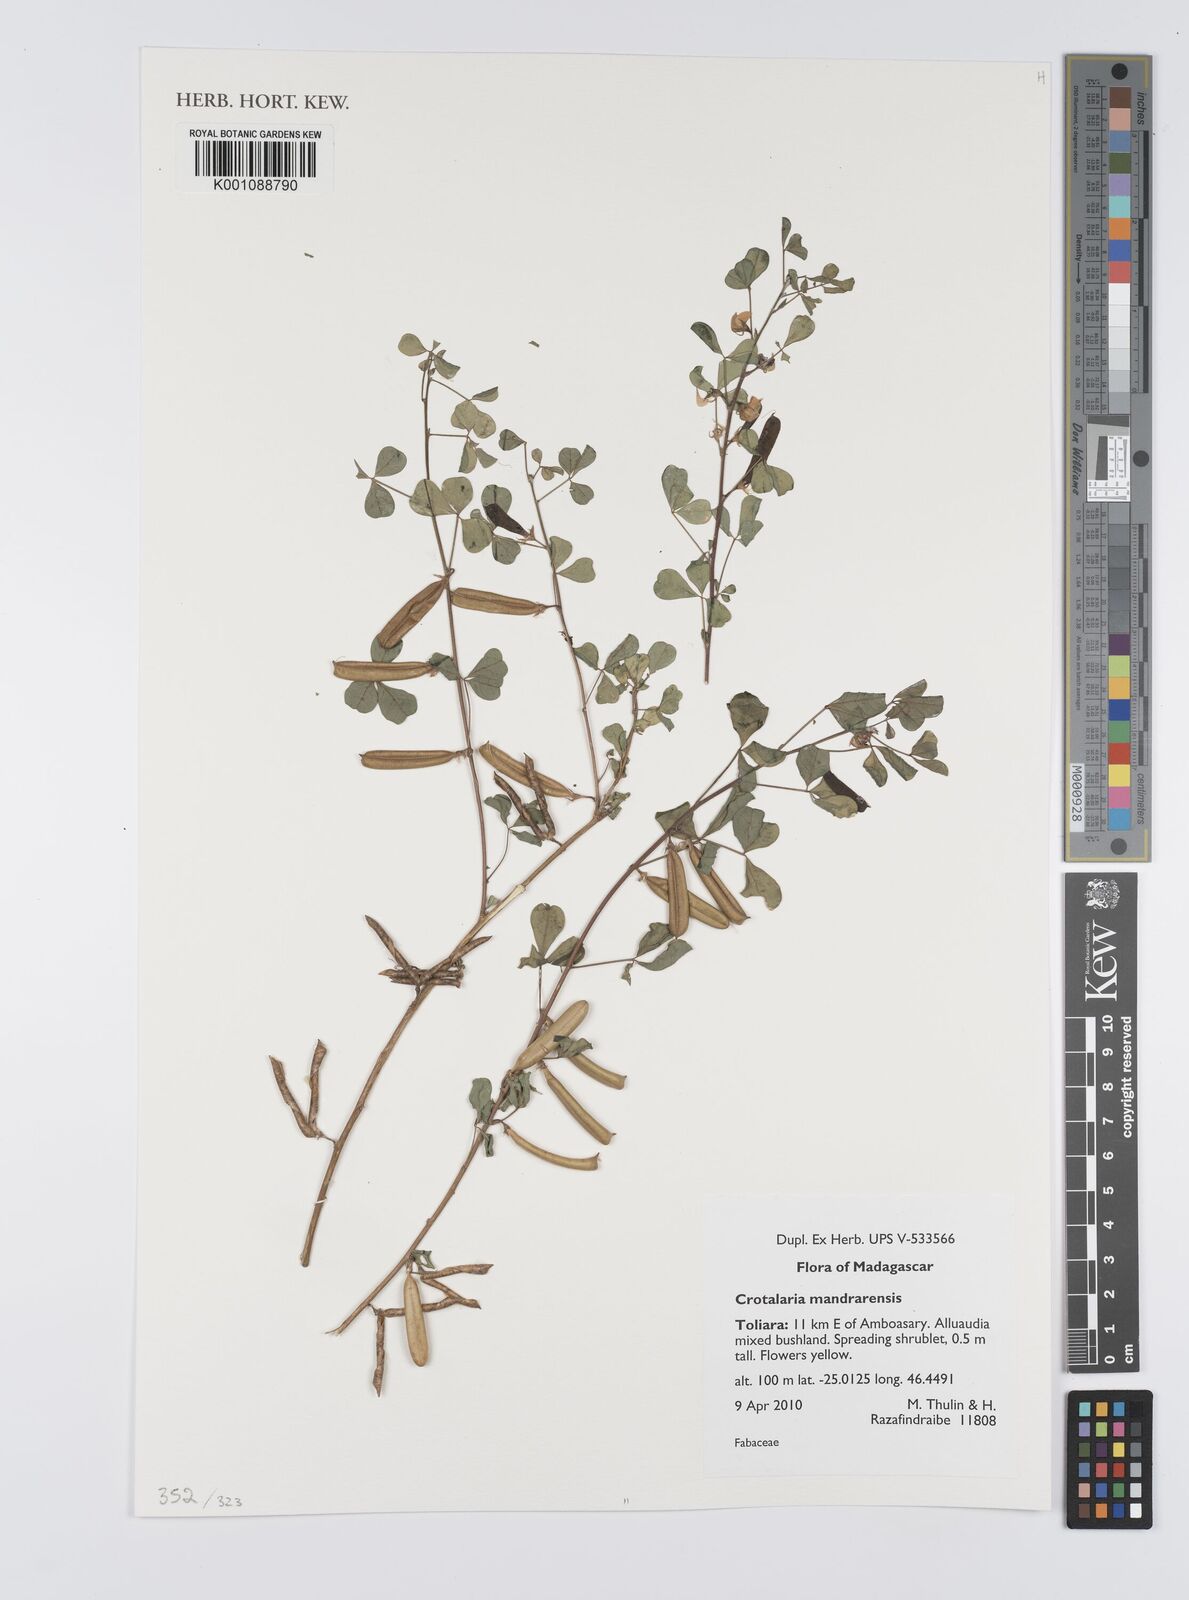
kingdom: Plantae
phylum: Tracheophyta
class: Magnoliopsida
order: Fabales
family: Fabaceae
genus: Crotalaria
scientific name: Crotalaria mandrarensis
